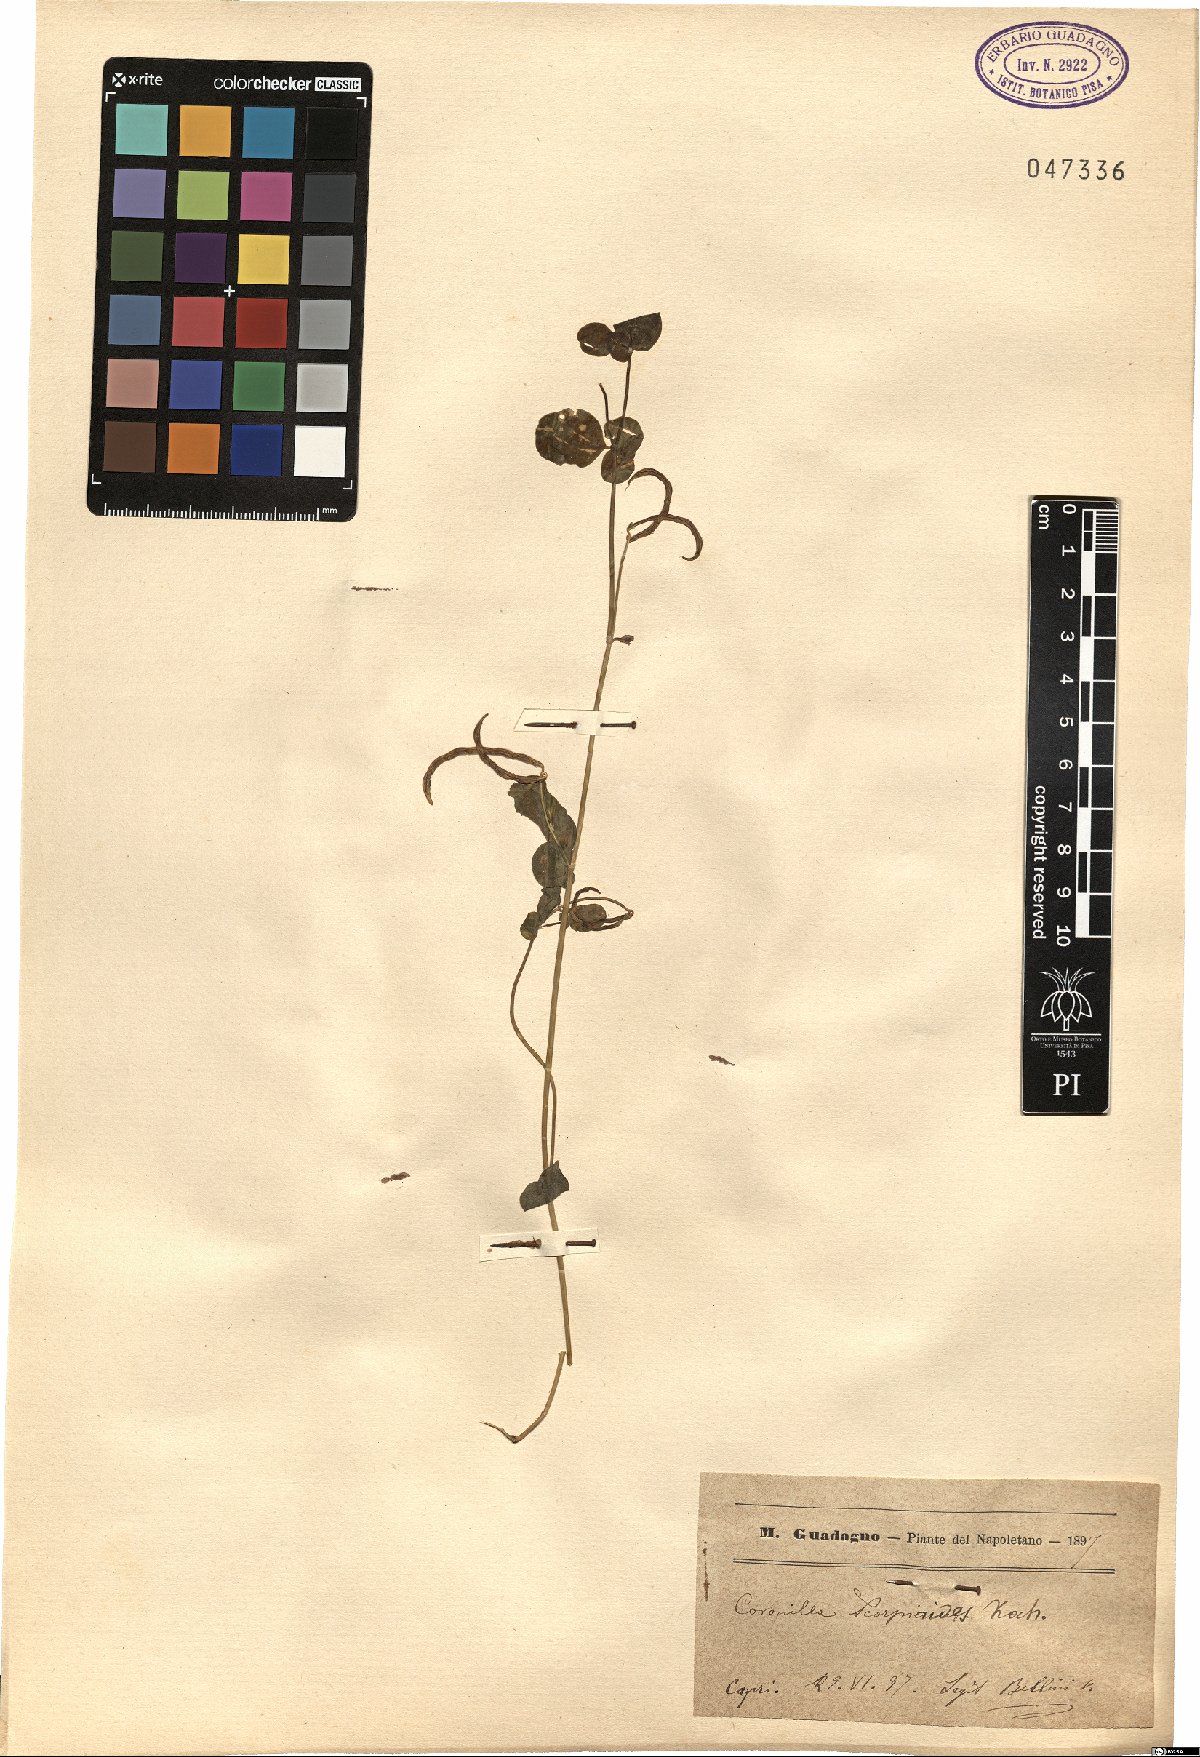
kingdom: Plantae
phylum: Tracheophyta
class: Magnoliopsida
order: Fabales
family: Fabaceae
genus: Coronilla
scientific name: Coronilla scorpioides
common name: Annual scorpion-vetch
